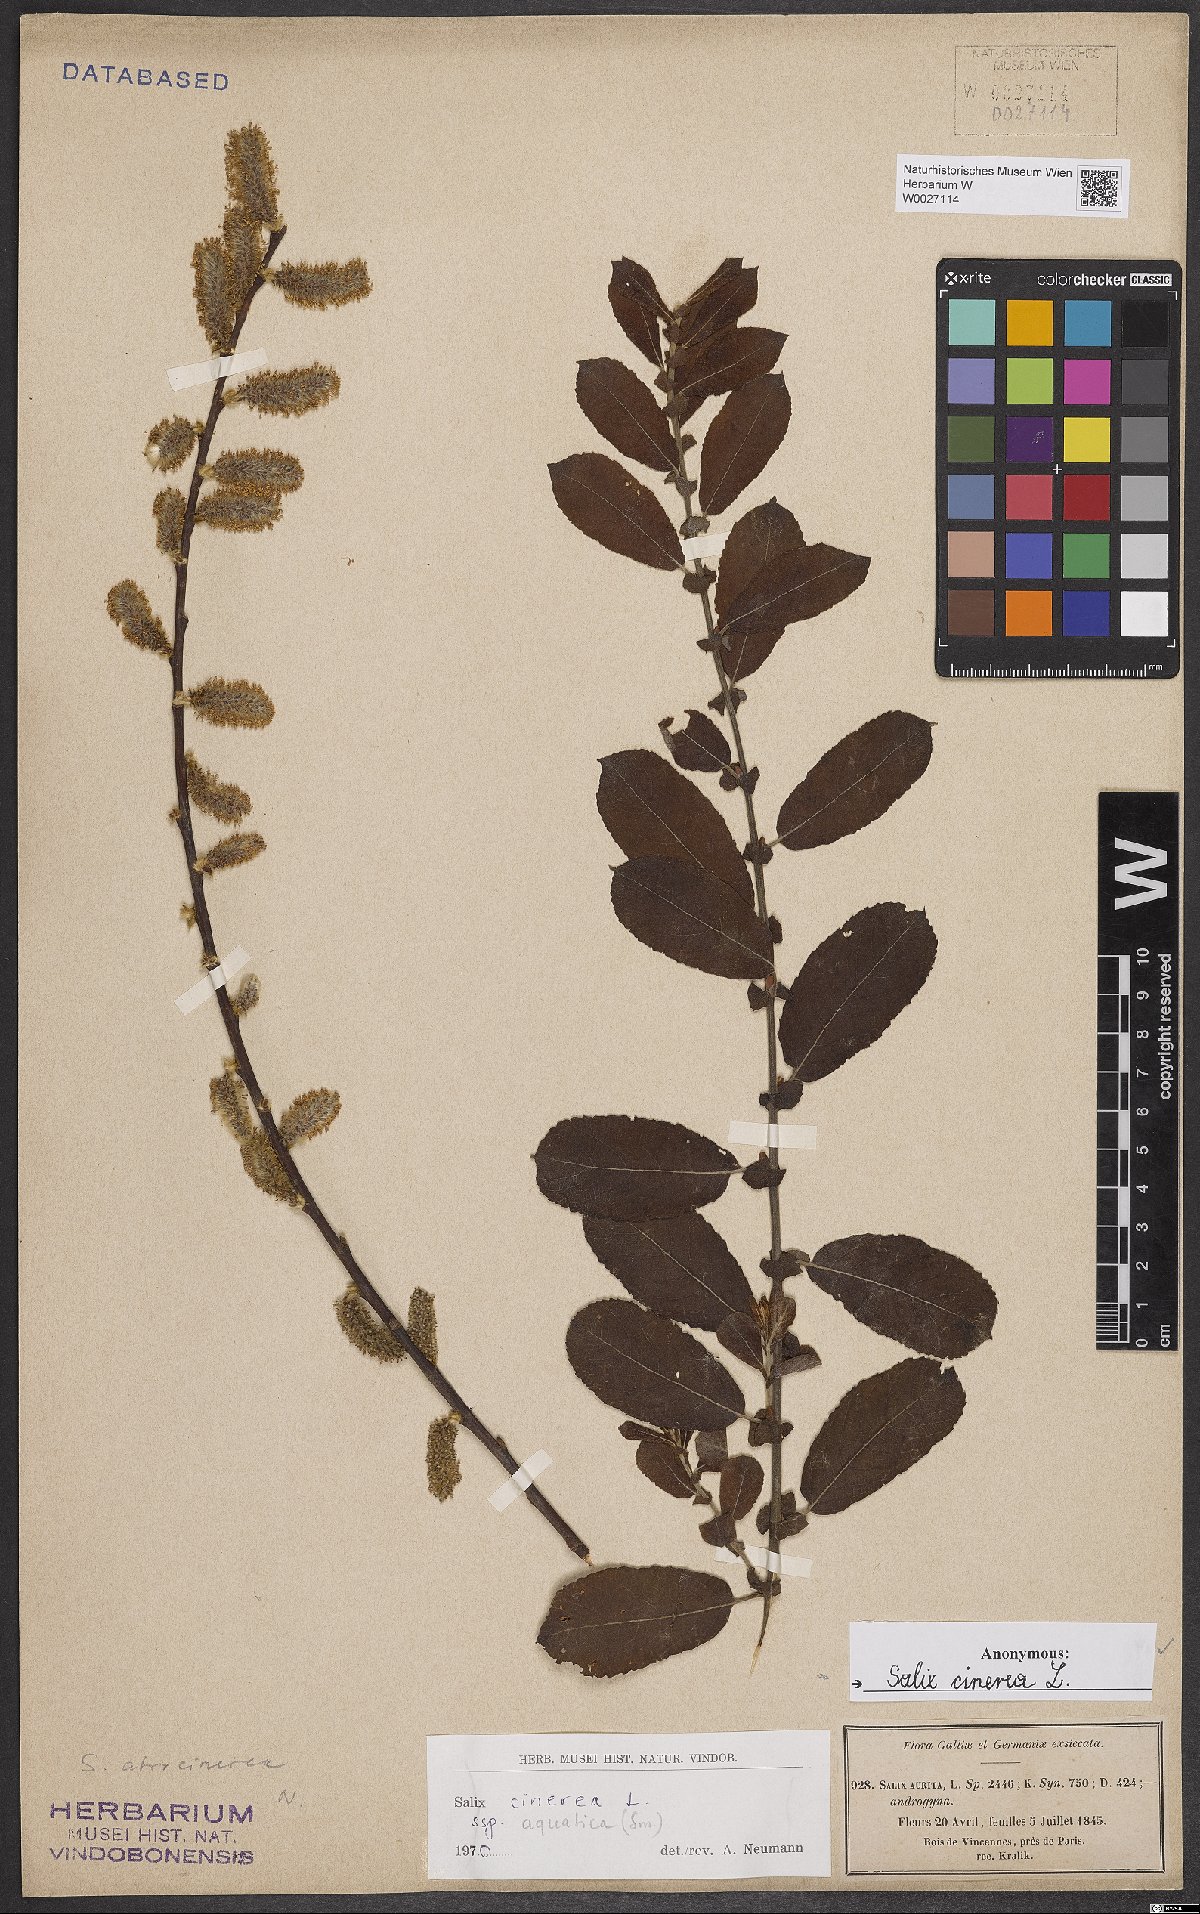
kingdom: Plantae
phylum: Tracheophyta
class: Magnoliopsida
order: Malpighiales
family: Salicaceae
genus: Salix
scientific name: Salix cinerea
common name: Common sallow
